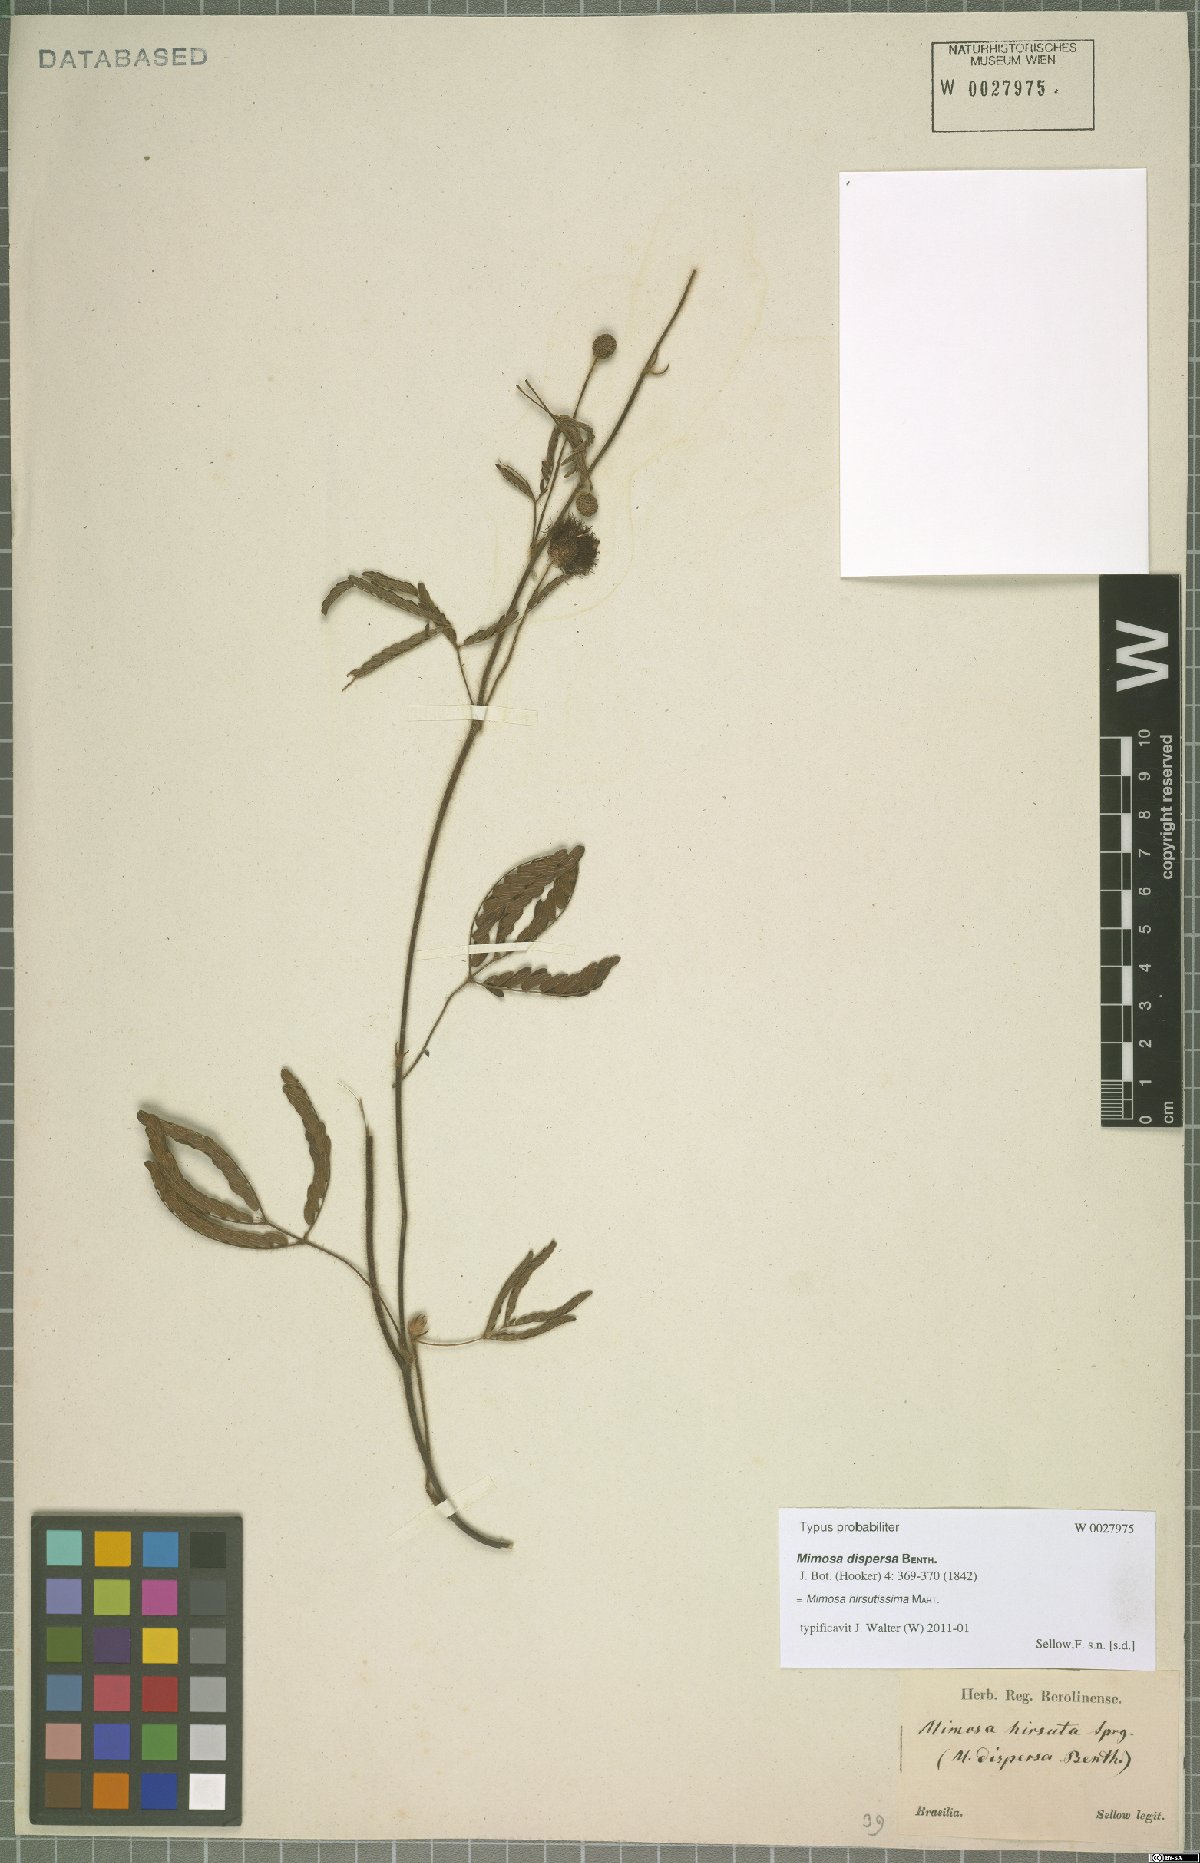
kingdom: Plantae
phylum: Tracheophyta
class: Magnoliopsida
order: Fabales
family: Fabaceae
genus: Mimosa
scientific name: Mimosa hirsutissima
